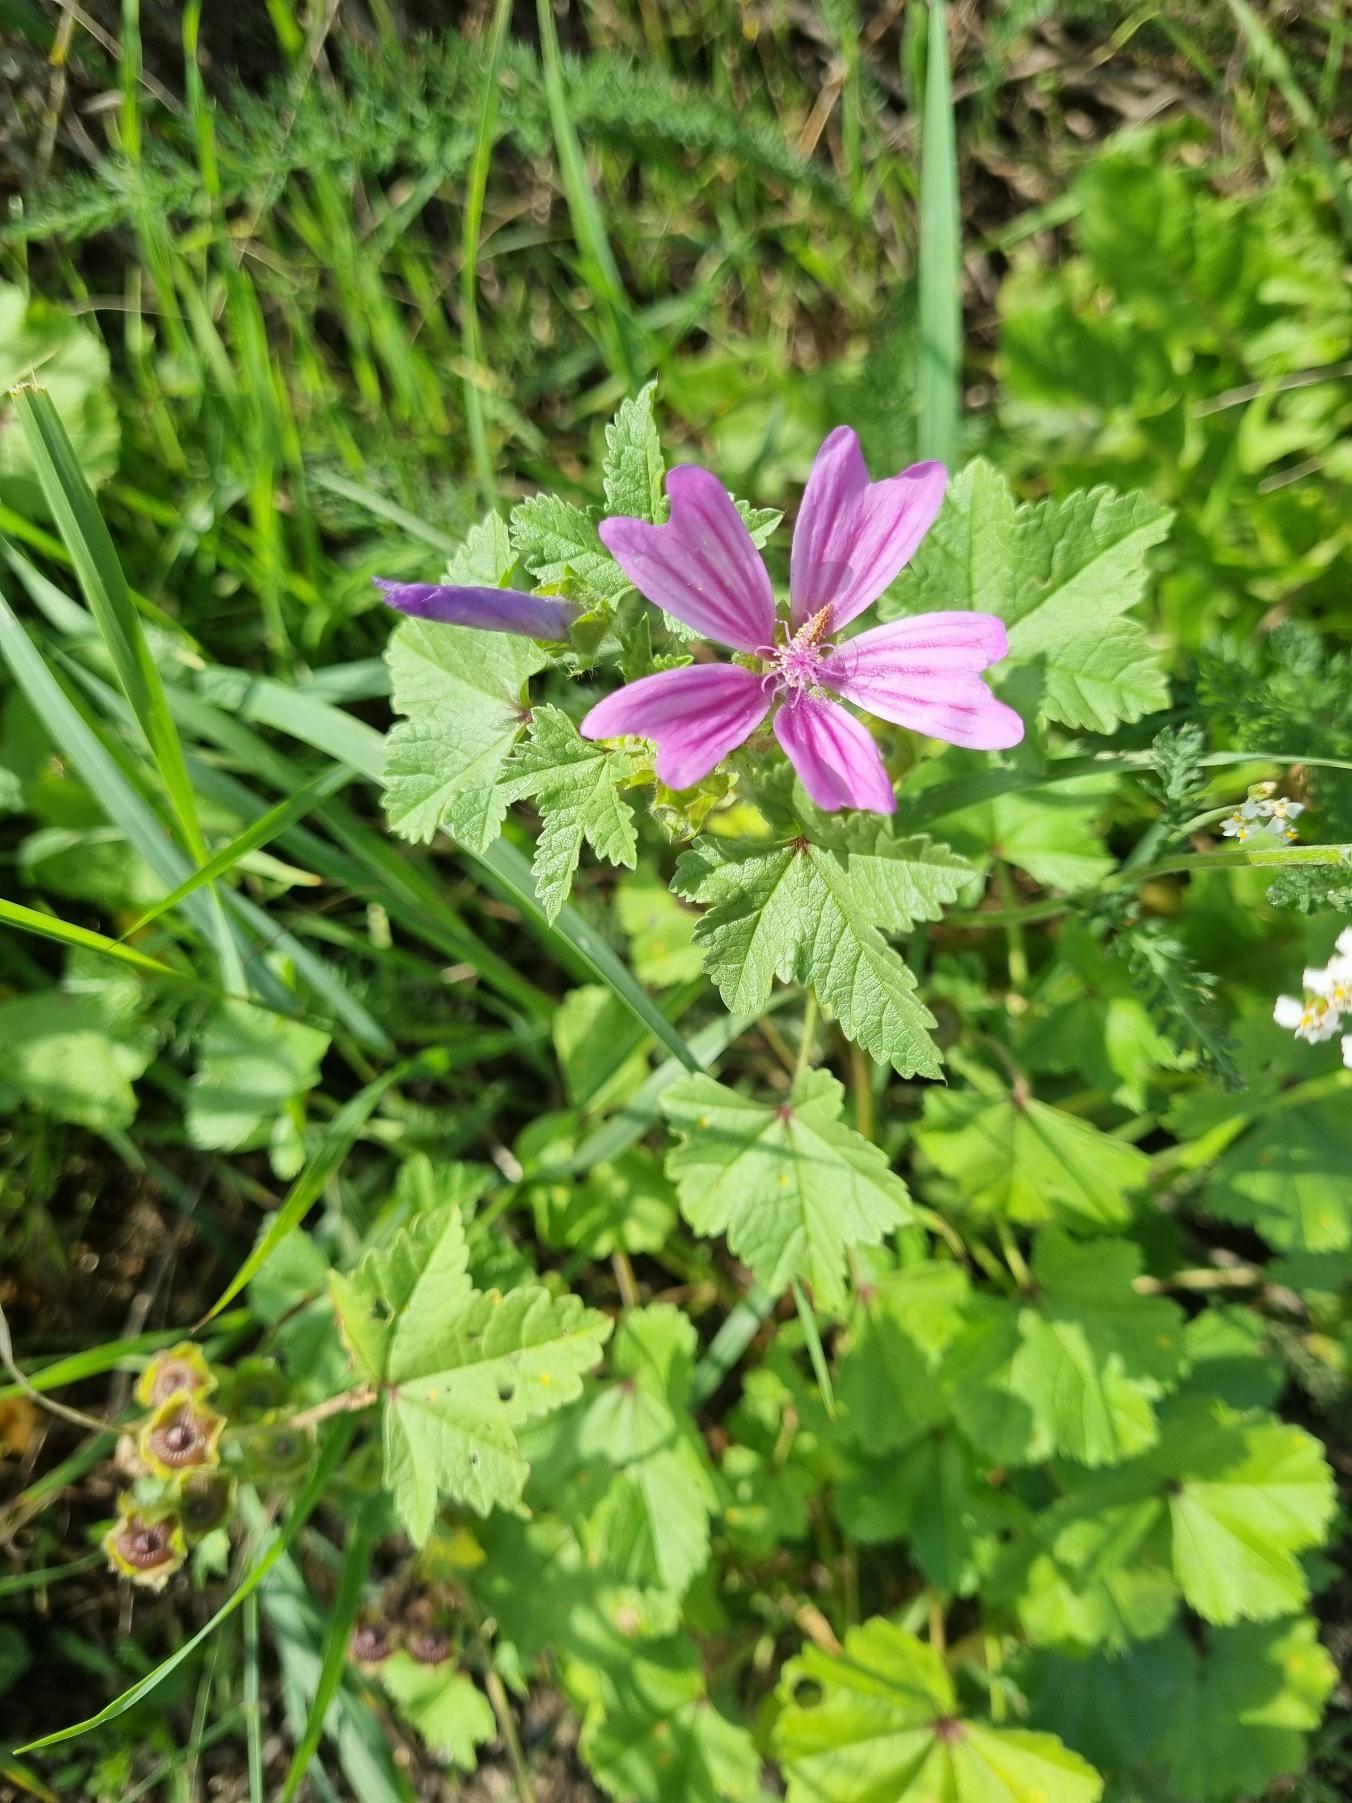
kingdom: Plantae
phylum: Tracheophyta
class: Magnoliopsida
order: Malvales
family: Malvaceae
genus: Malva
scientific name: Malva sylvestris
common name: Almindelig katost
